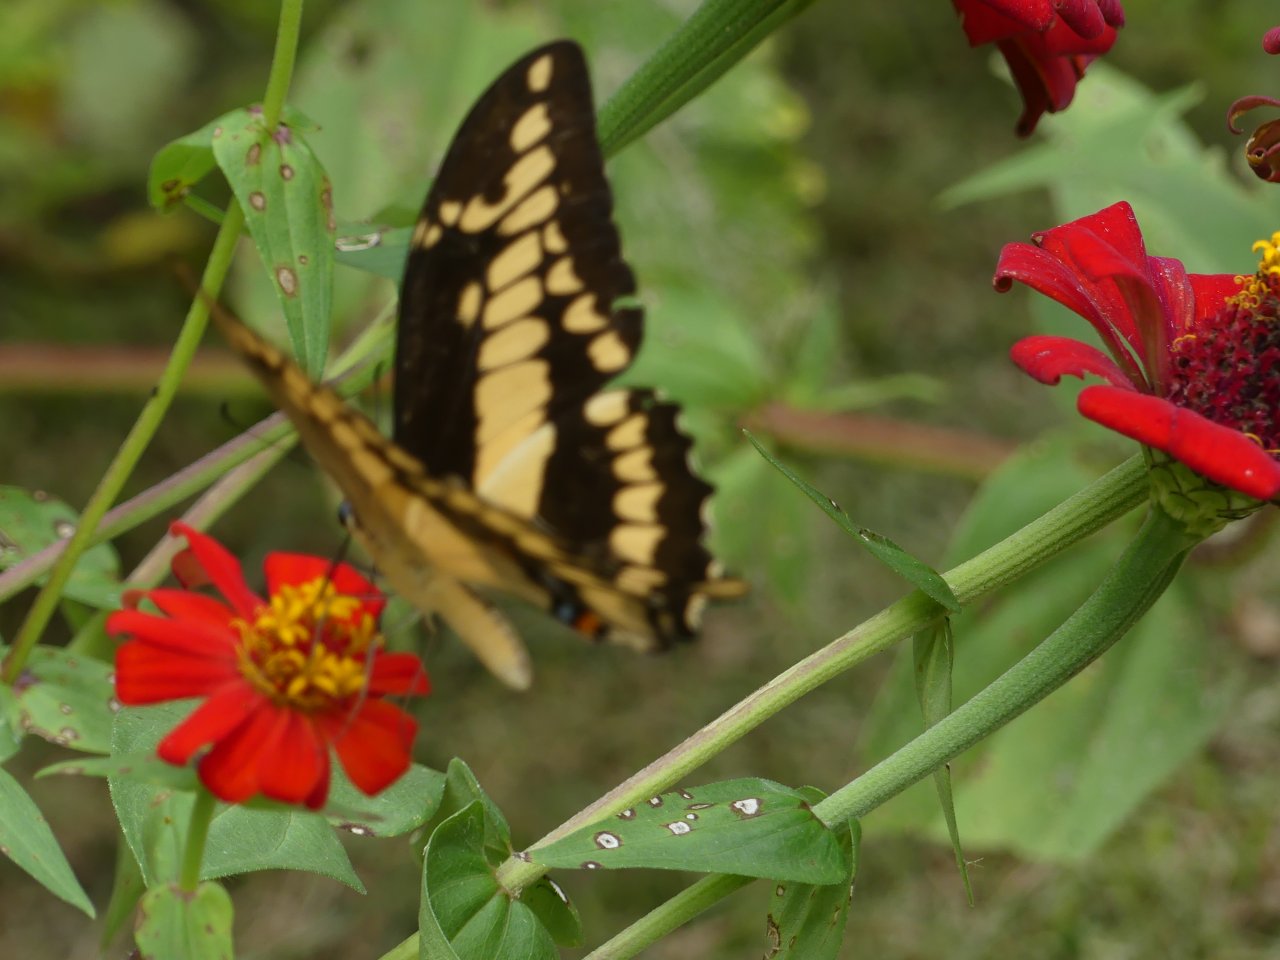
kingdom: Animalia
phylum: Arthropoda
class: Insecta
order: Lepidoptera
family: Papilionidae
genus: Papilio
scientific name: Papilio thoas
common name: Thoas Swallowtail
